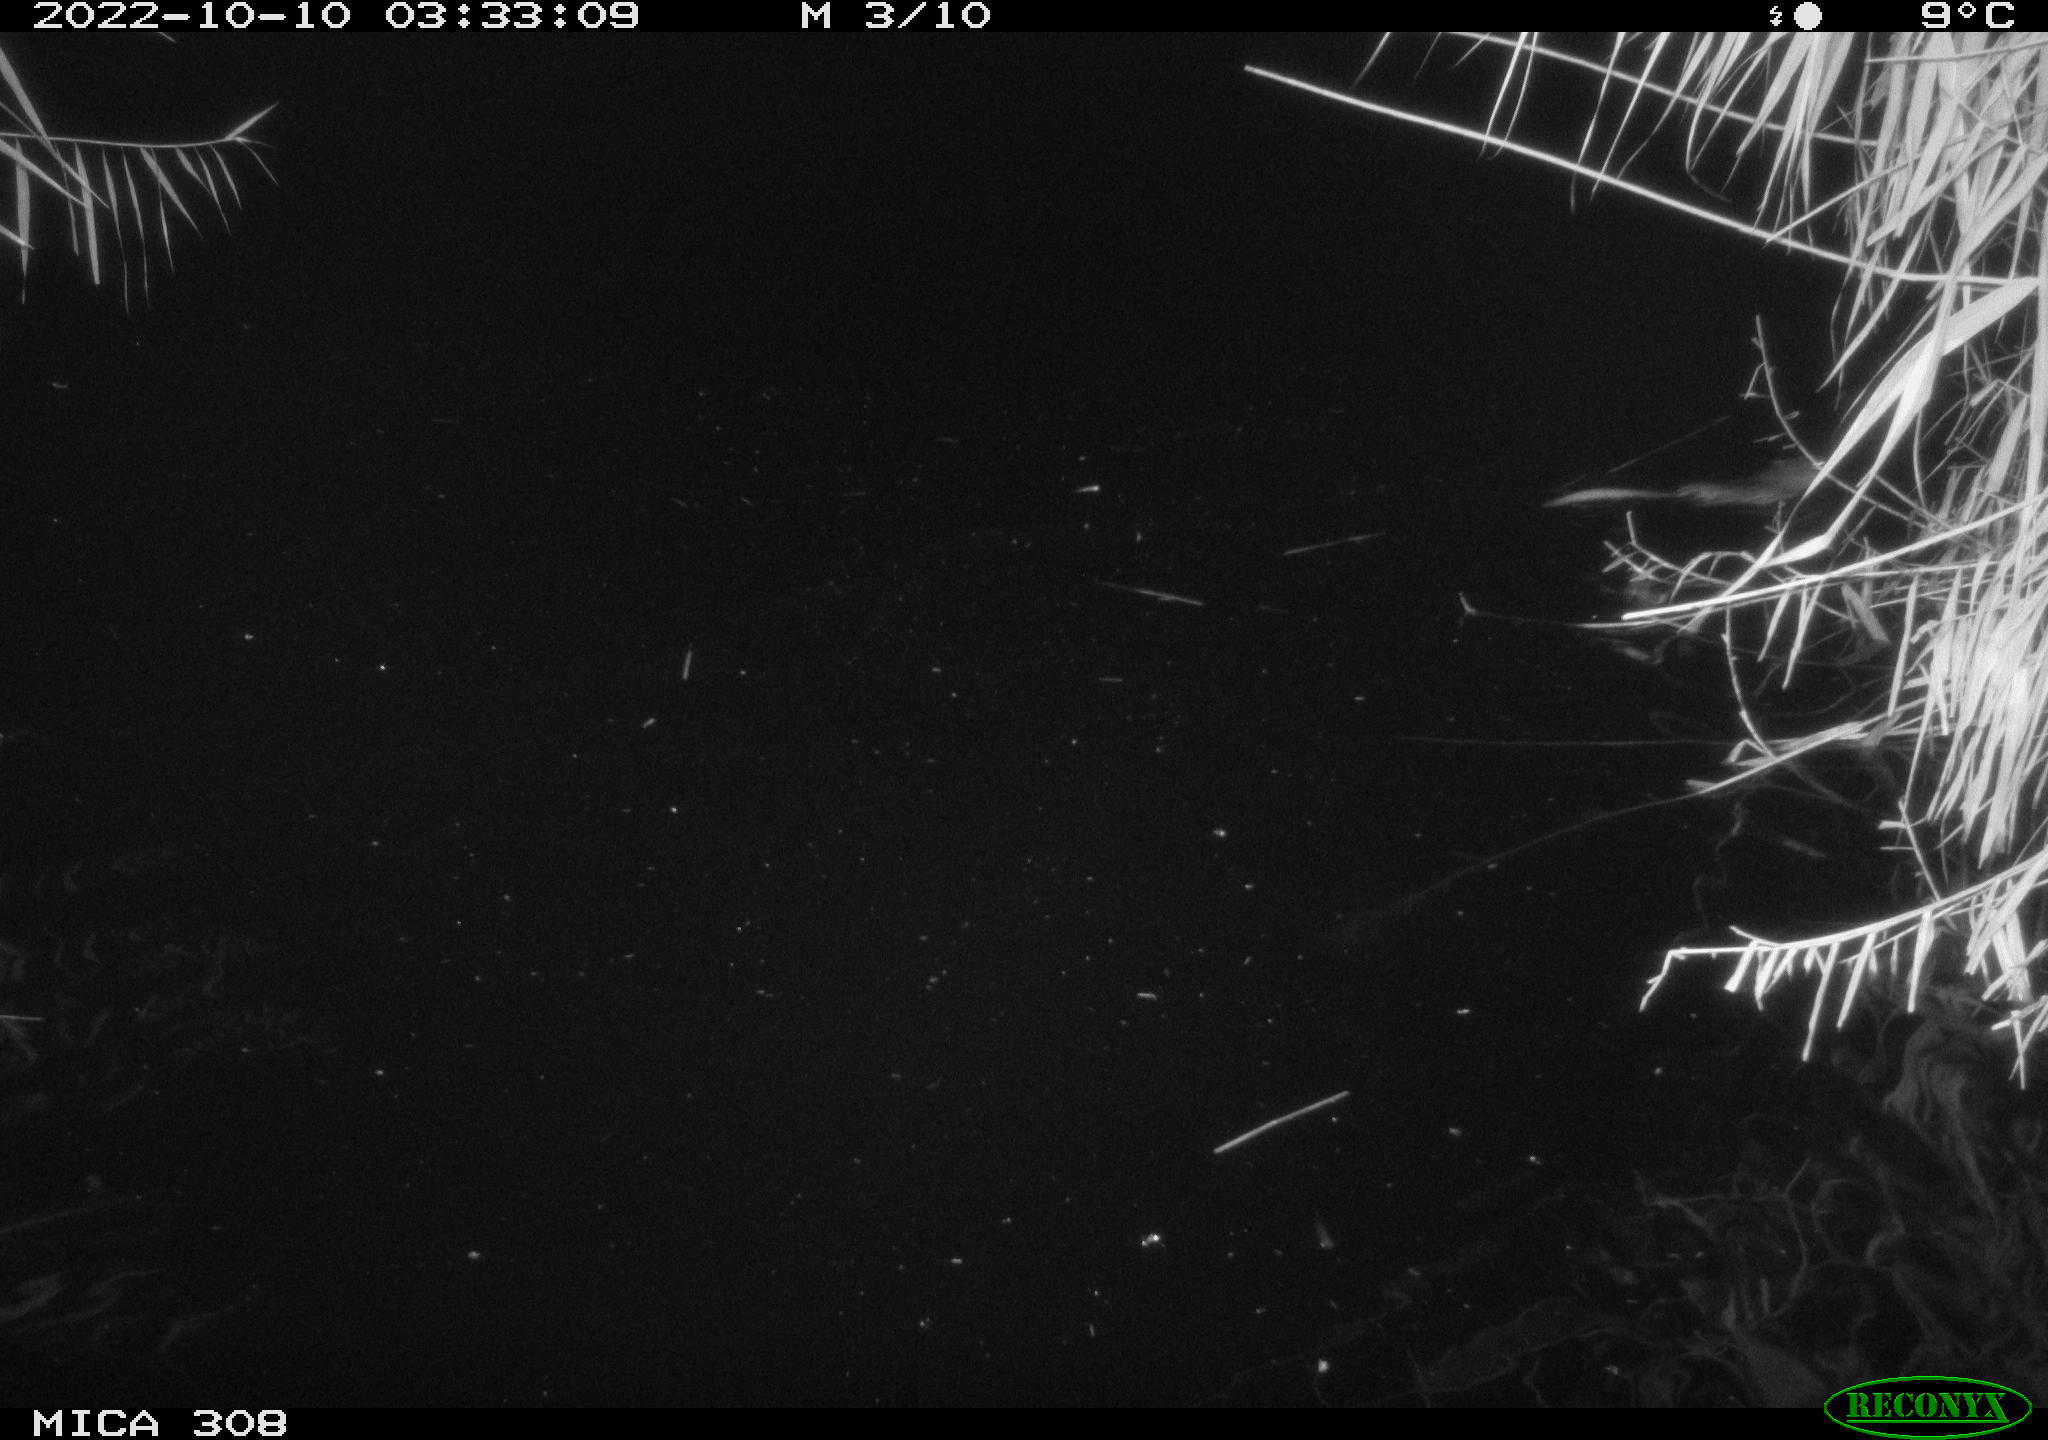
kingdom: Animalia
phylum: Chordata
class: Mammalia
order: Rodentia
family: Cricetidae
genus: Ondatra
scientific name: Ondatra zibethicus
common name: Muskrat
